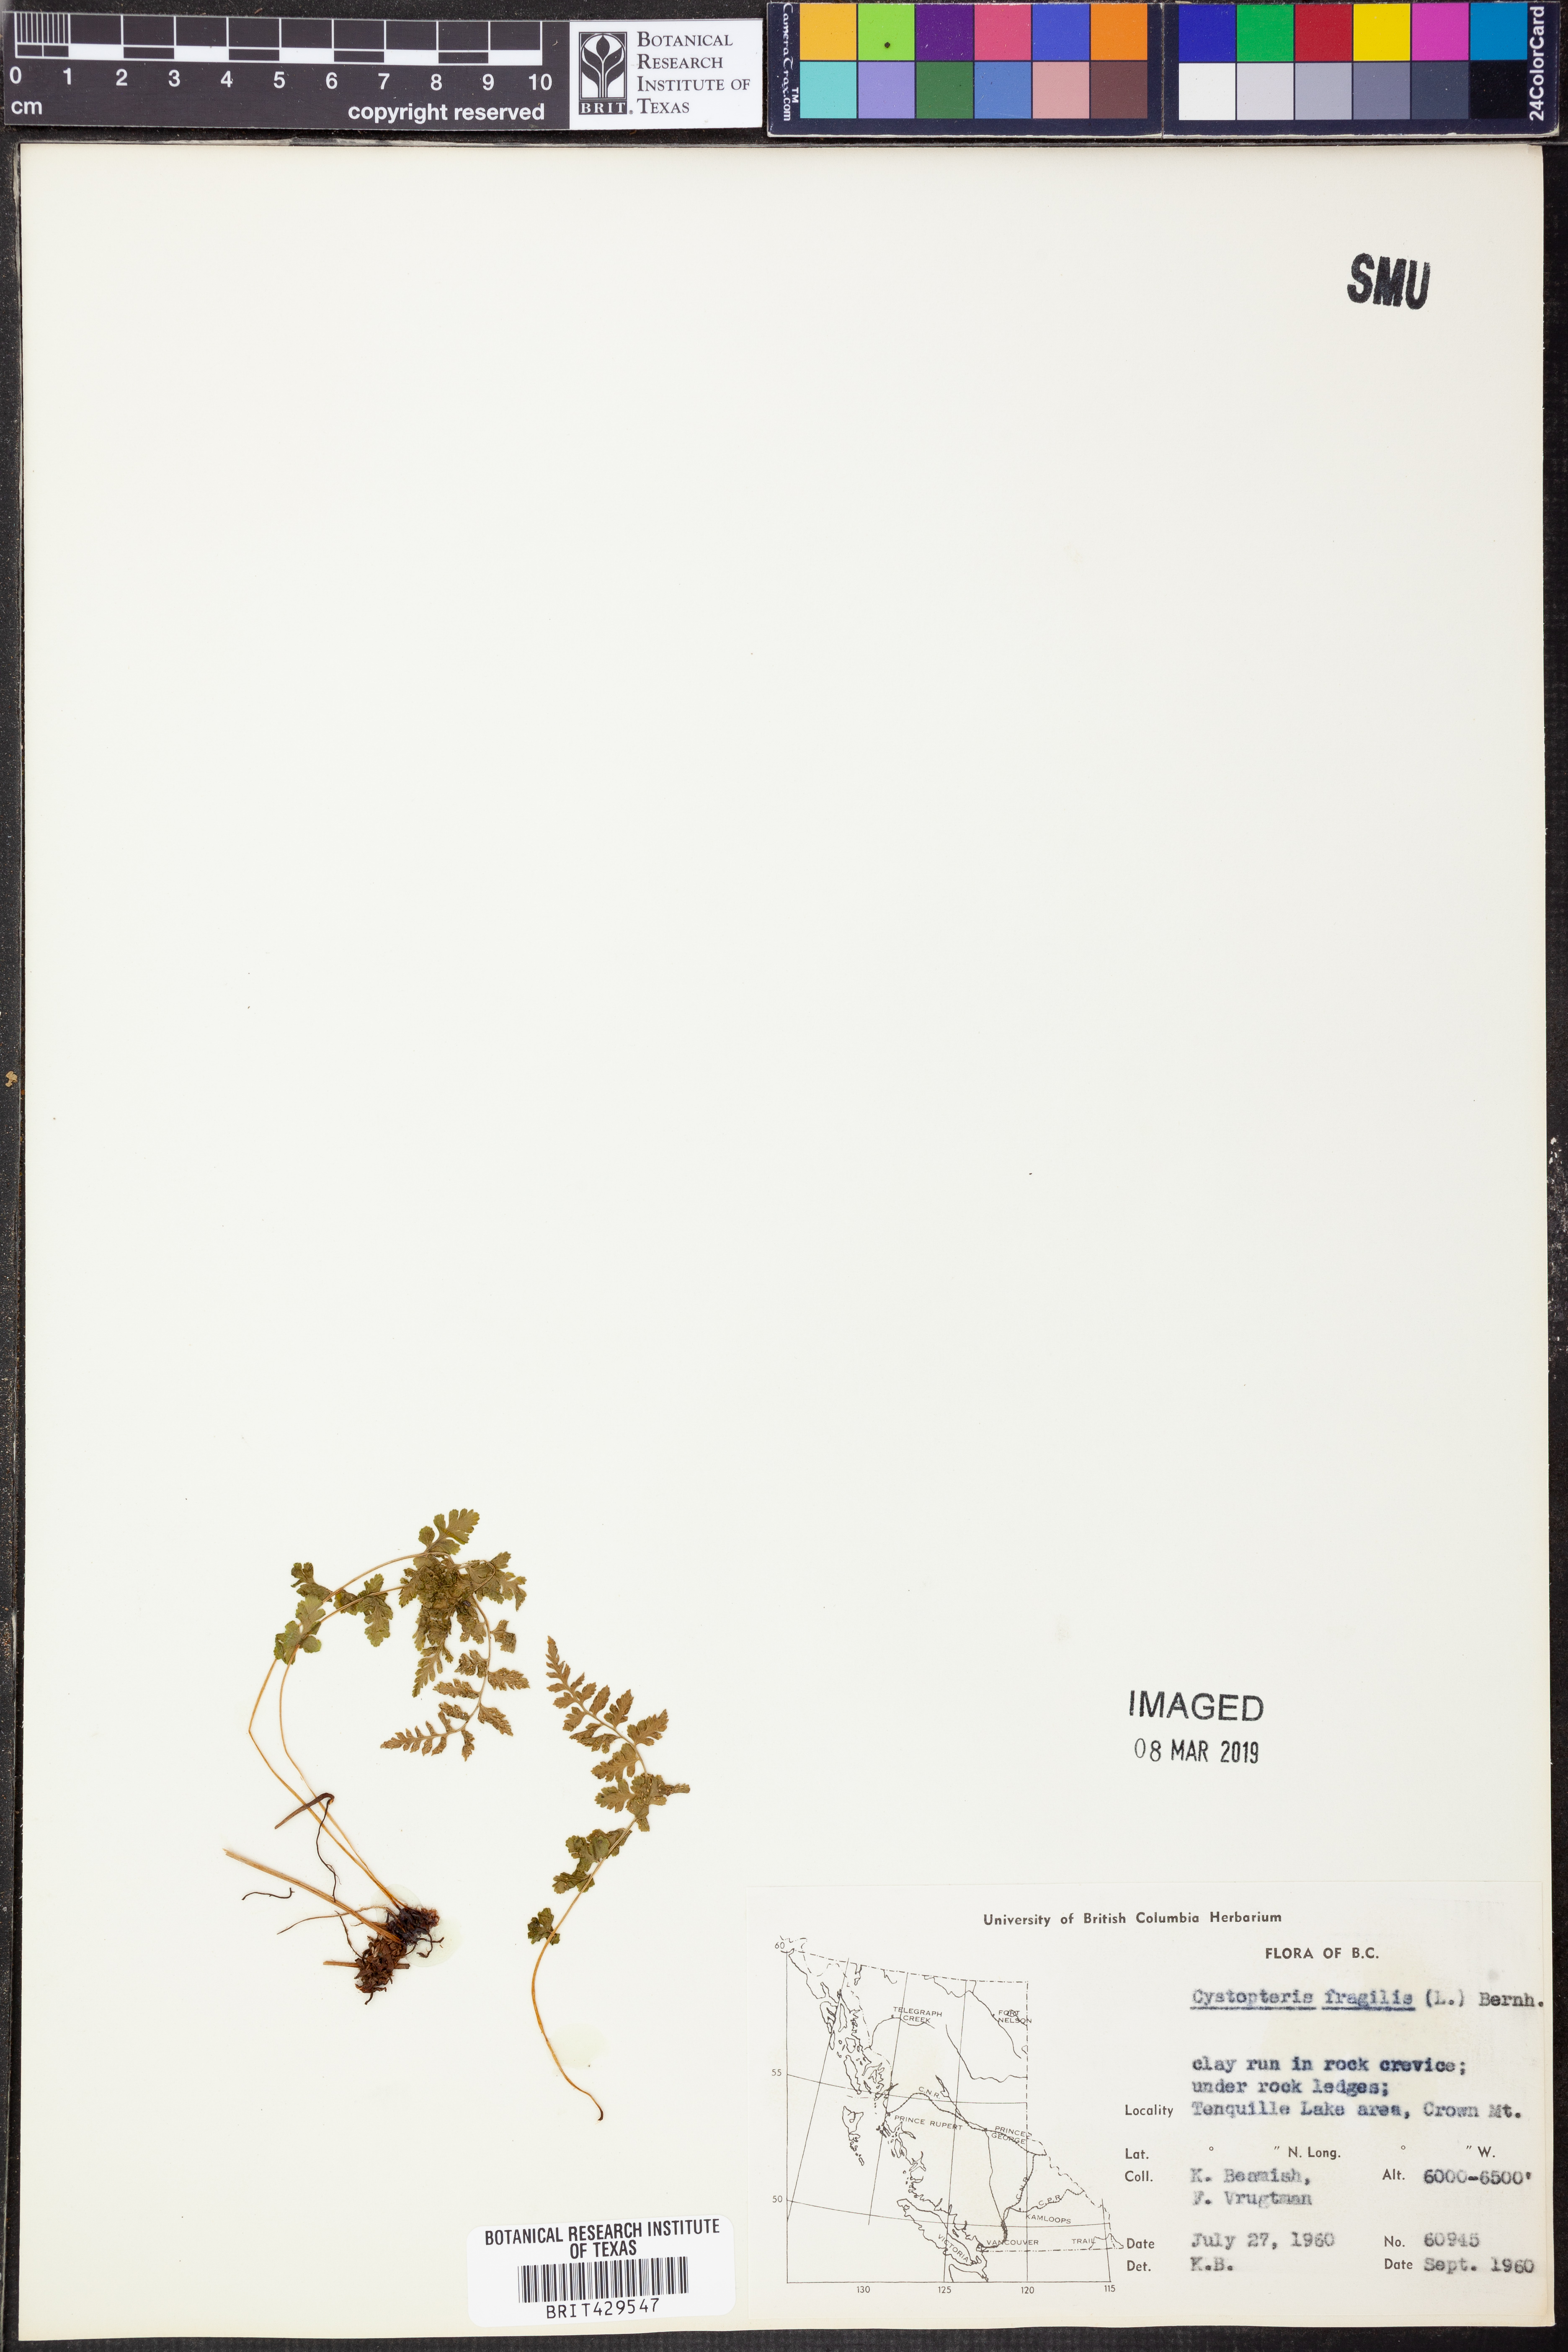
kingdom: Plantae
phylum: Tracheophyta
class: Polypodiopsida
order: Polypodiales
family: Cystopteridaceae
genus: Cystopteris
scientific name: Cystopteris fragilis
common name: Brittle bladder fern
